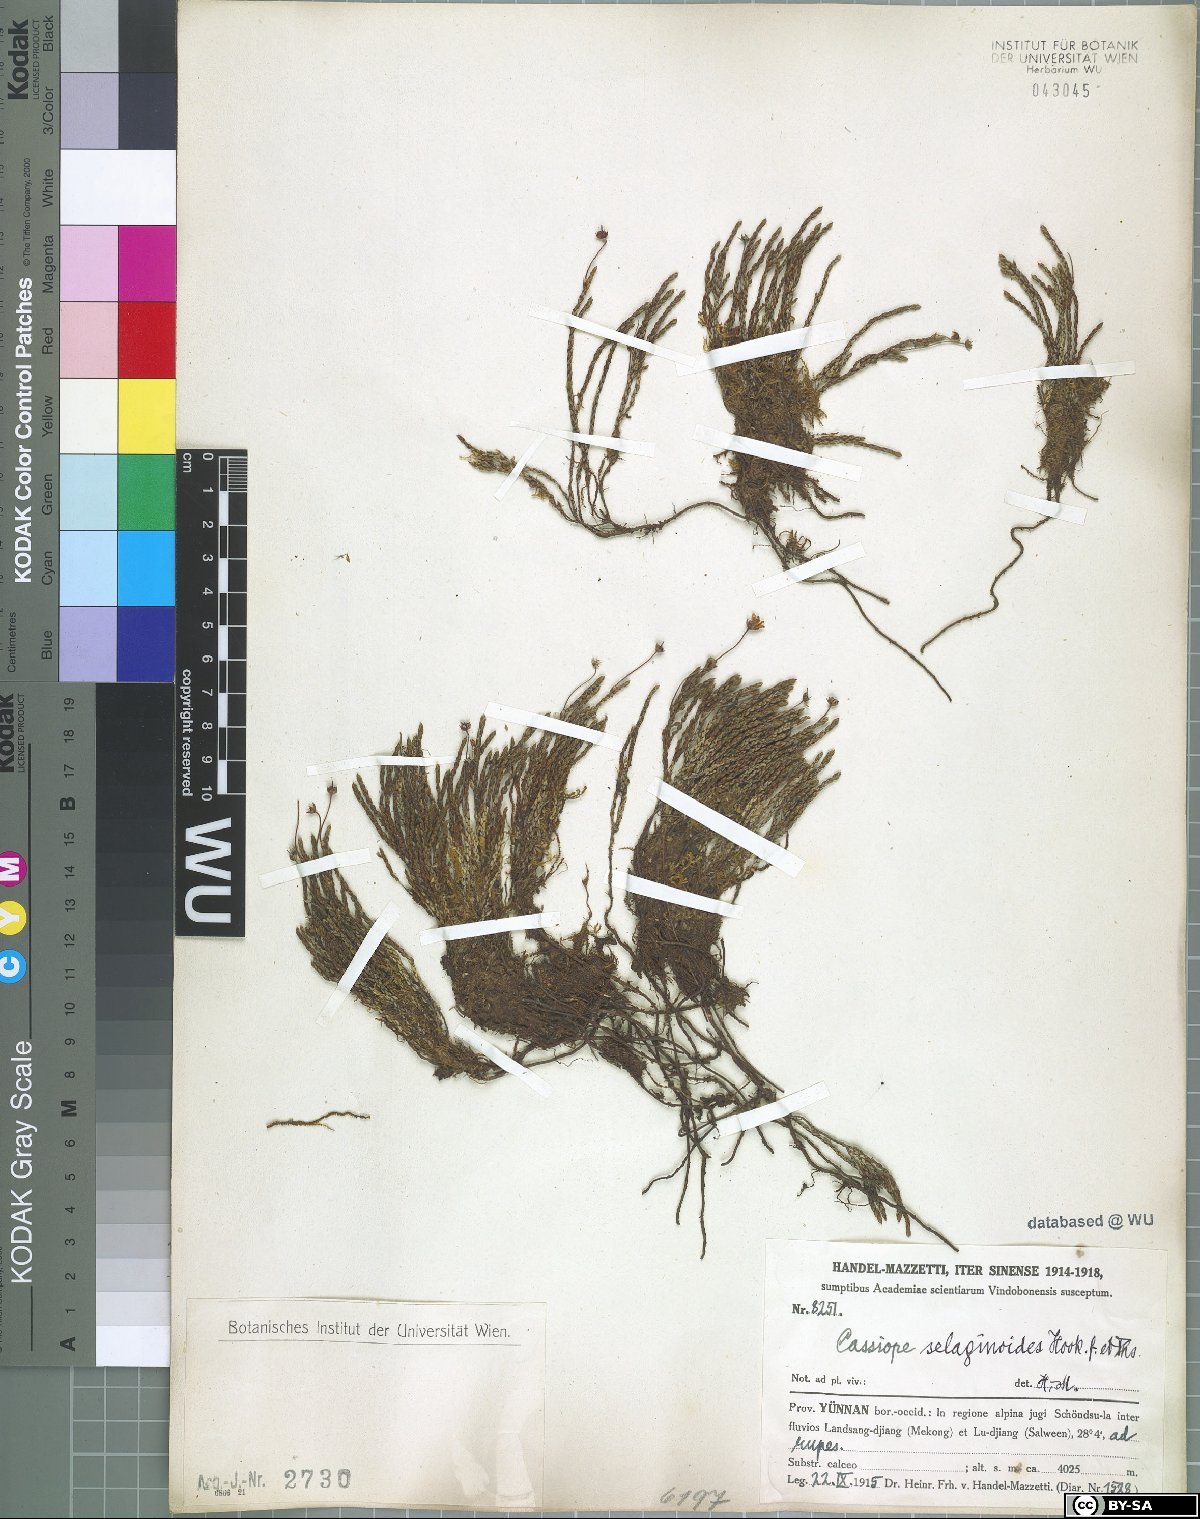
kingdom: Plantae
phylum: Tracheophyta
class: Magnoliopsida
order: Ericales
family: Ericaceae
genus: Cassiope
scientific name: Cassiope selaginoides
